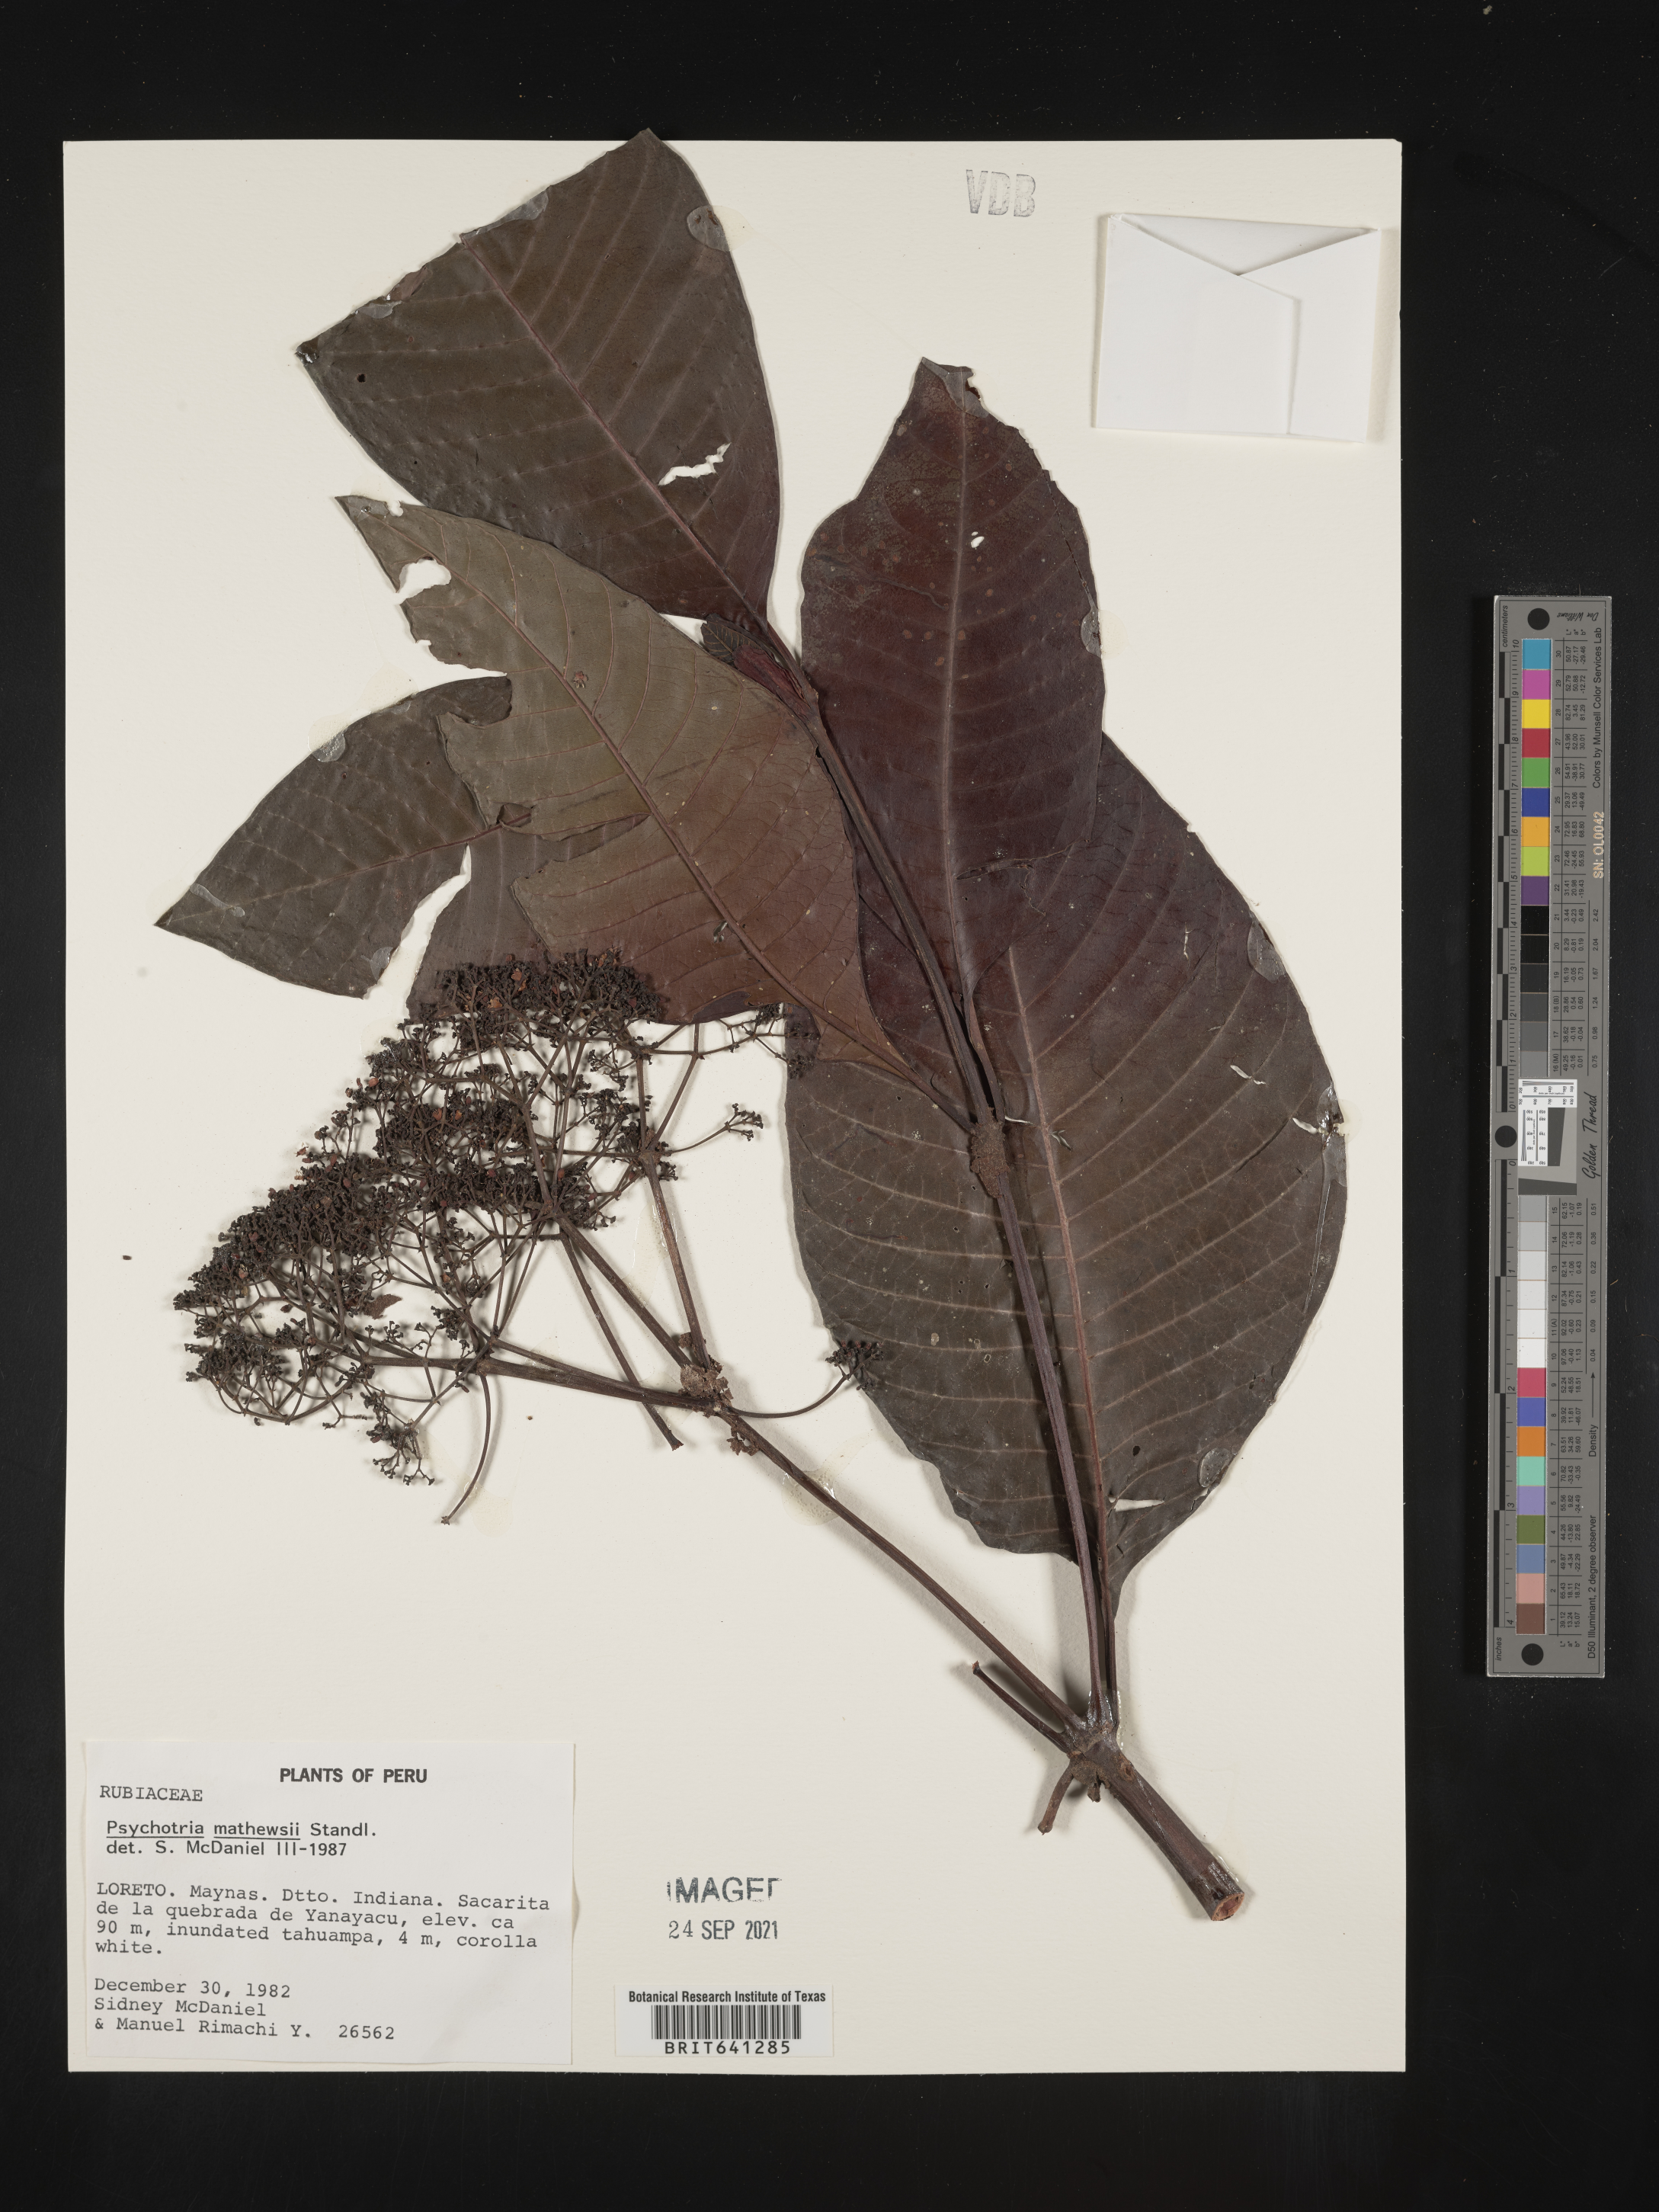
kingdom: Plantae
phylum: Tracheophyta
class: Magnoliopsida
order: Gentianales
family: Rubiaceae
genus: Psychotria
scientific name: Psychotria
